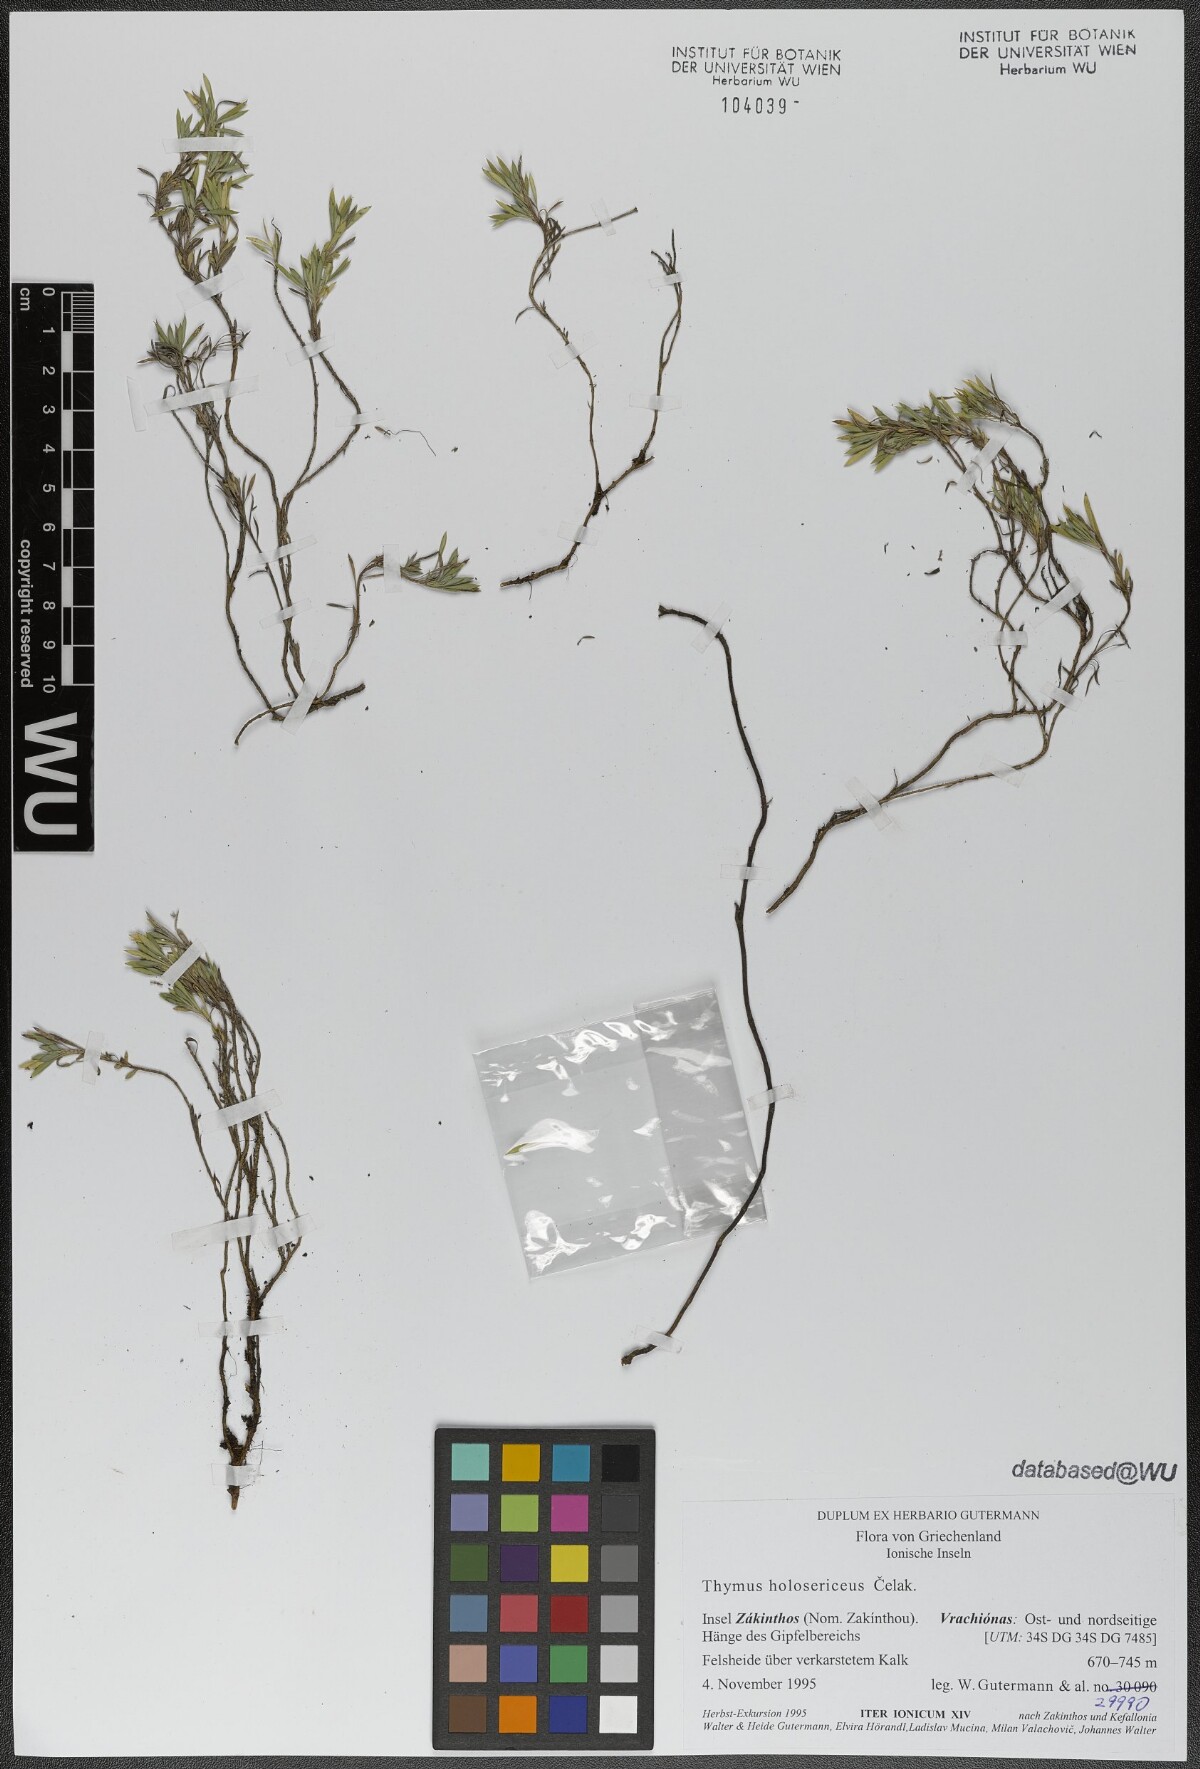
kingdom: Plantae
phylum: Tracheophyta
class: Magnoliopsida
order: Lamiales
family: Lamiaceae
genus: Thymus
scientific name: Thymus holosericeus
